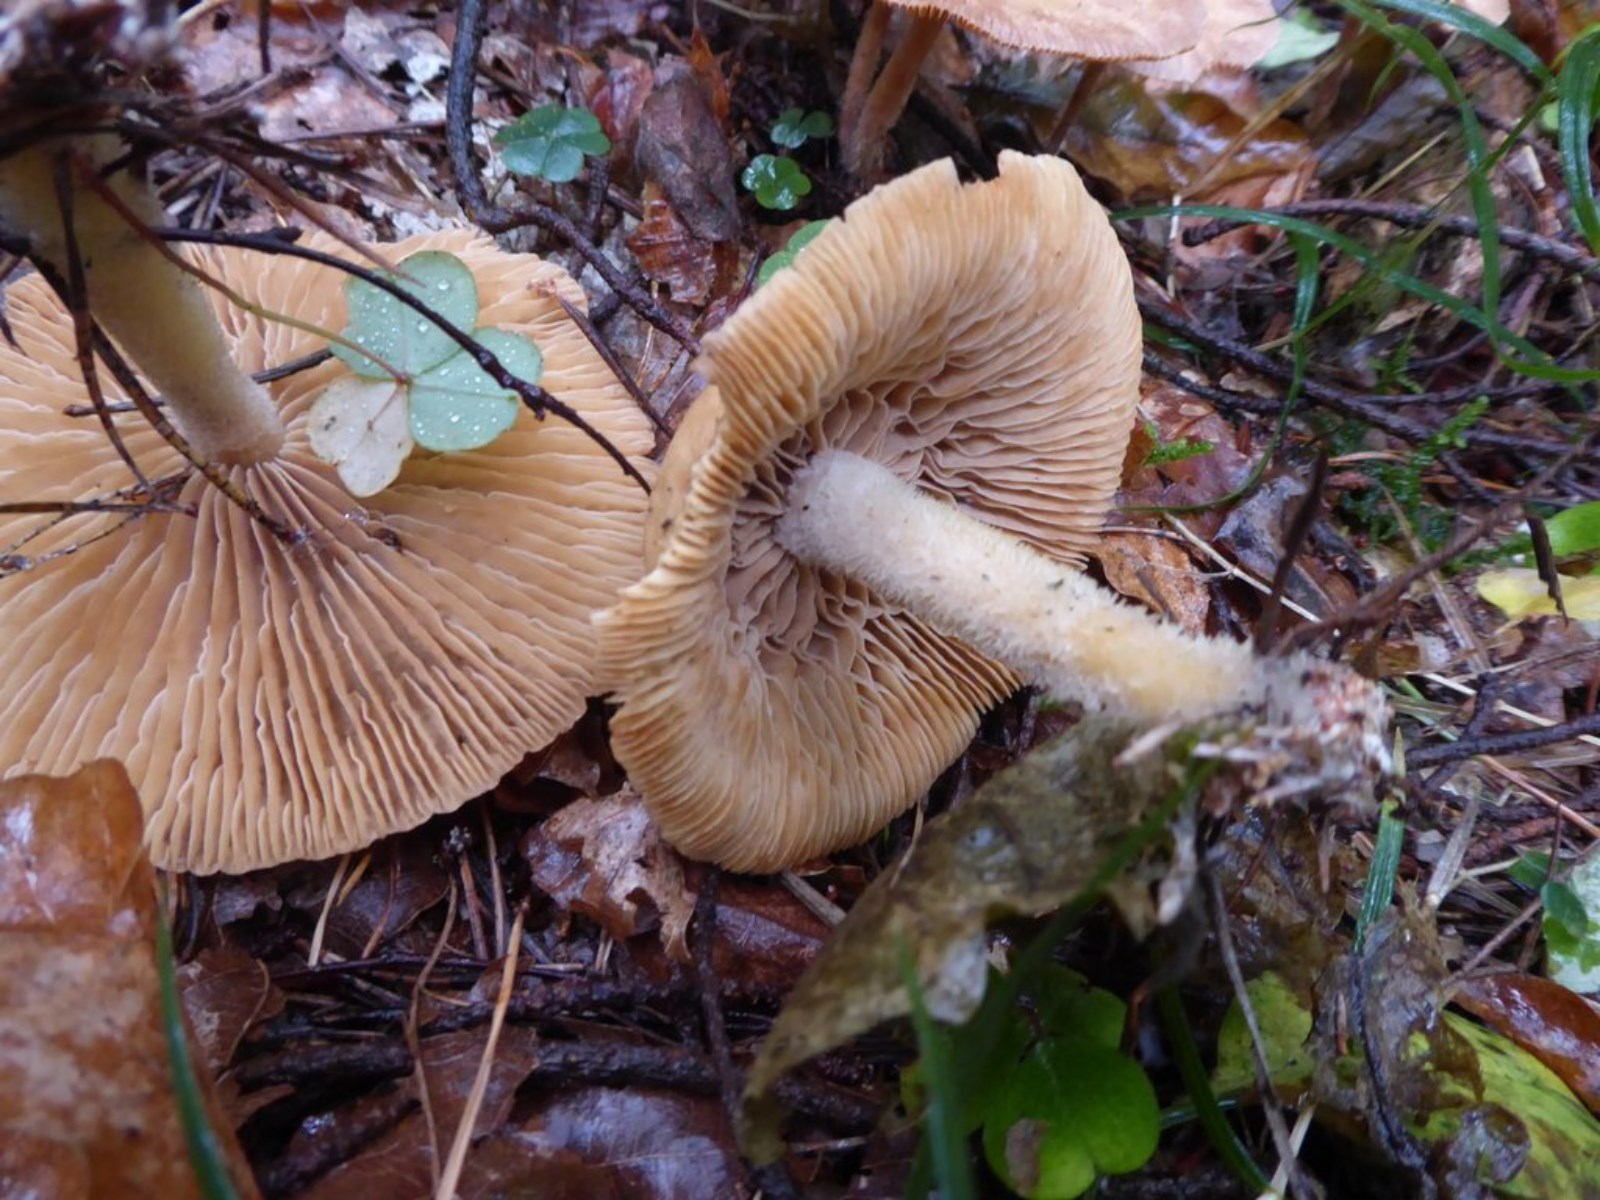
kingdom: Fungi
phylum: Basidiomycota
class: Agaricomycetes
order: Agaricales
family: Omphalotaceae
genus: Collybiopsis
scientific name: Collybiopsis peronata
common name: bestøvlet fladhat
